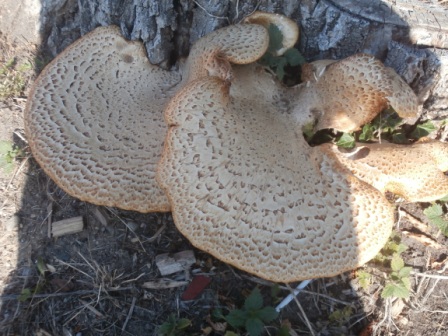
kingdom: Fungi
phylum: Basidiomycota
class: Agaricomycetes
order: Polyporales
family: Polyporaceae
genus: Cerioporus
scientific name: Cerioporus squamosus
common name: skællet stilkporesvamp
